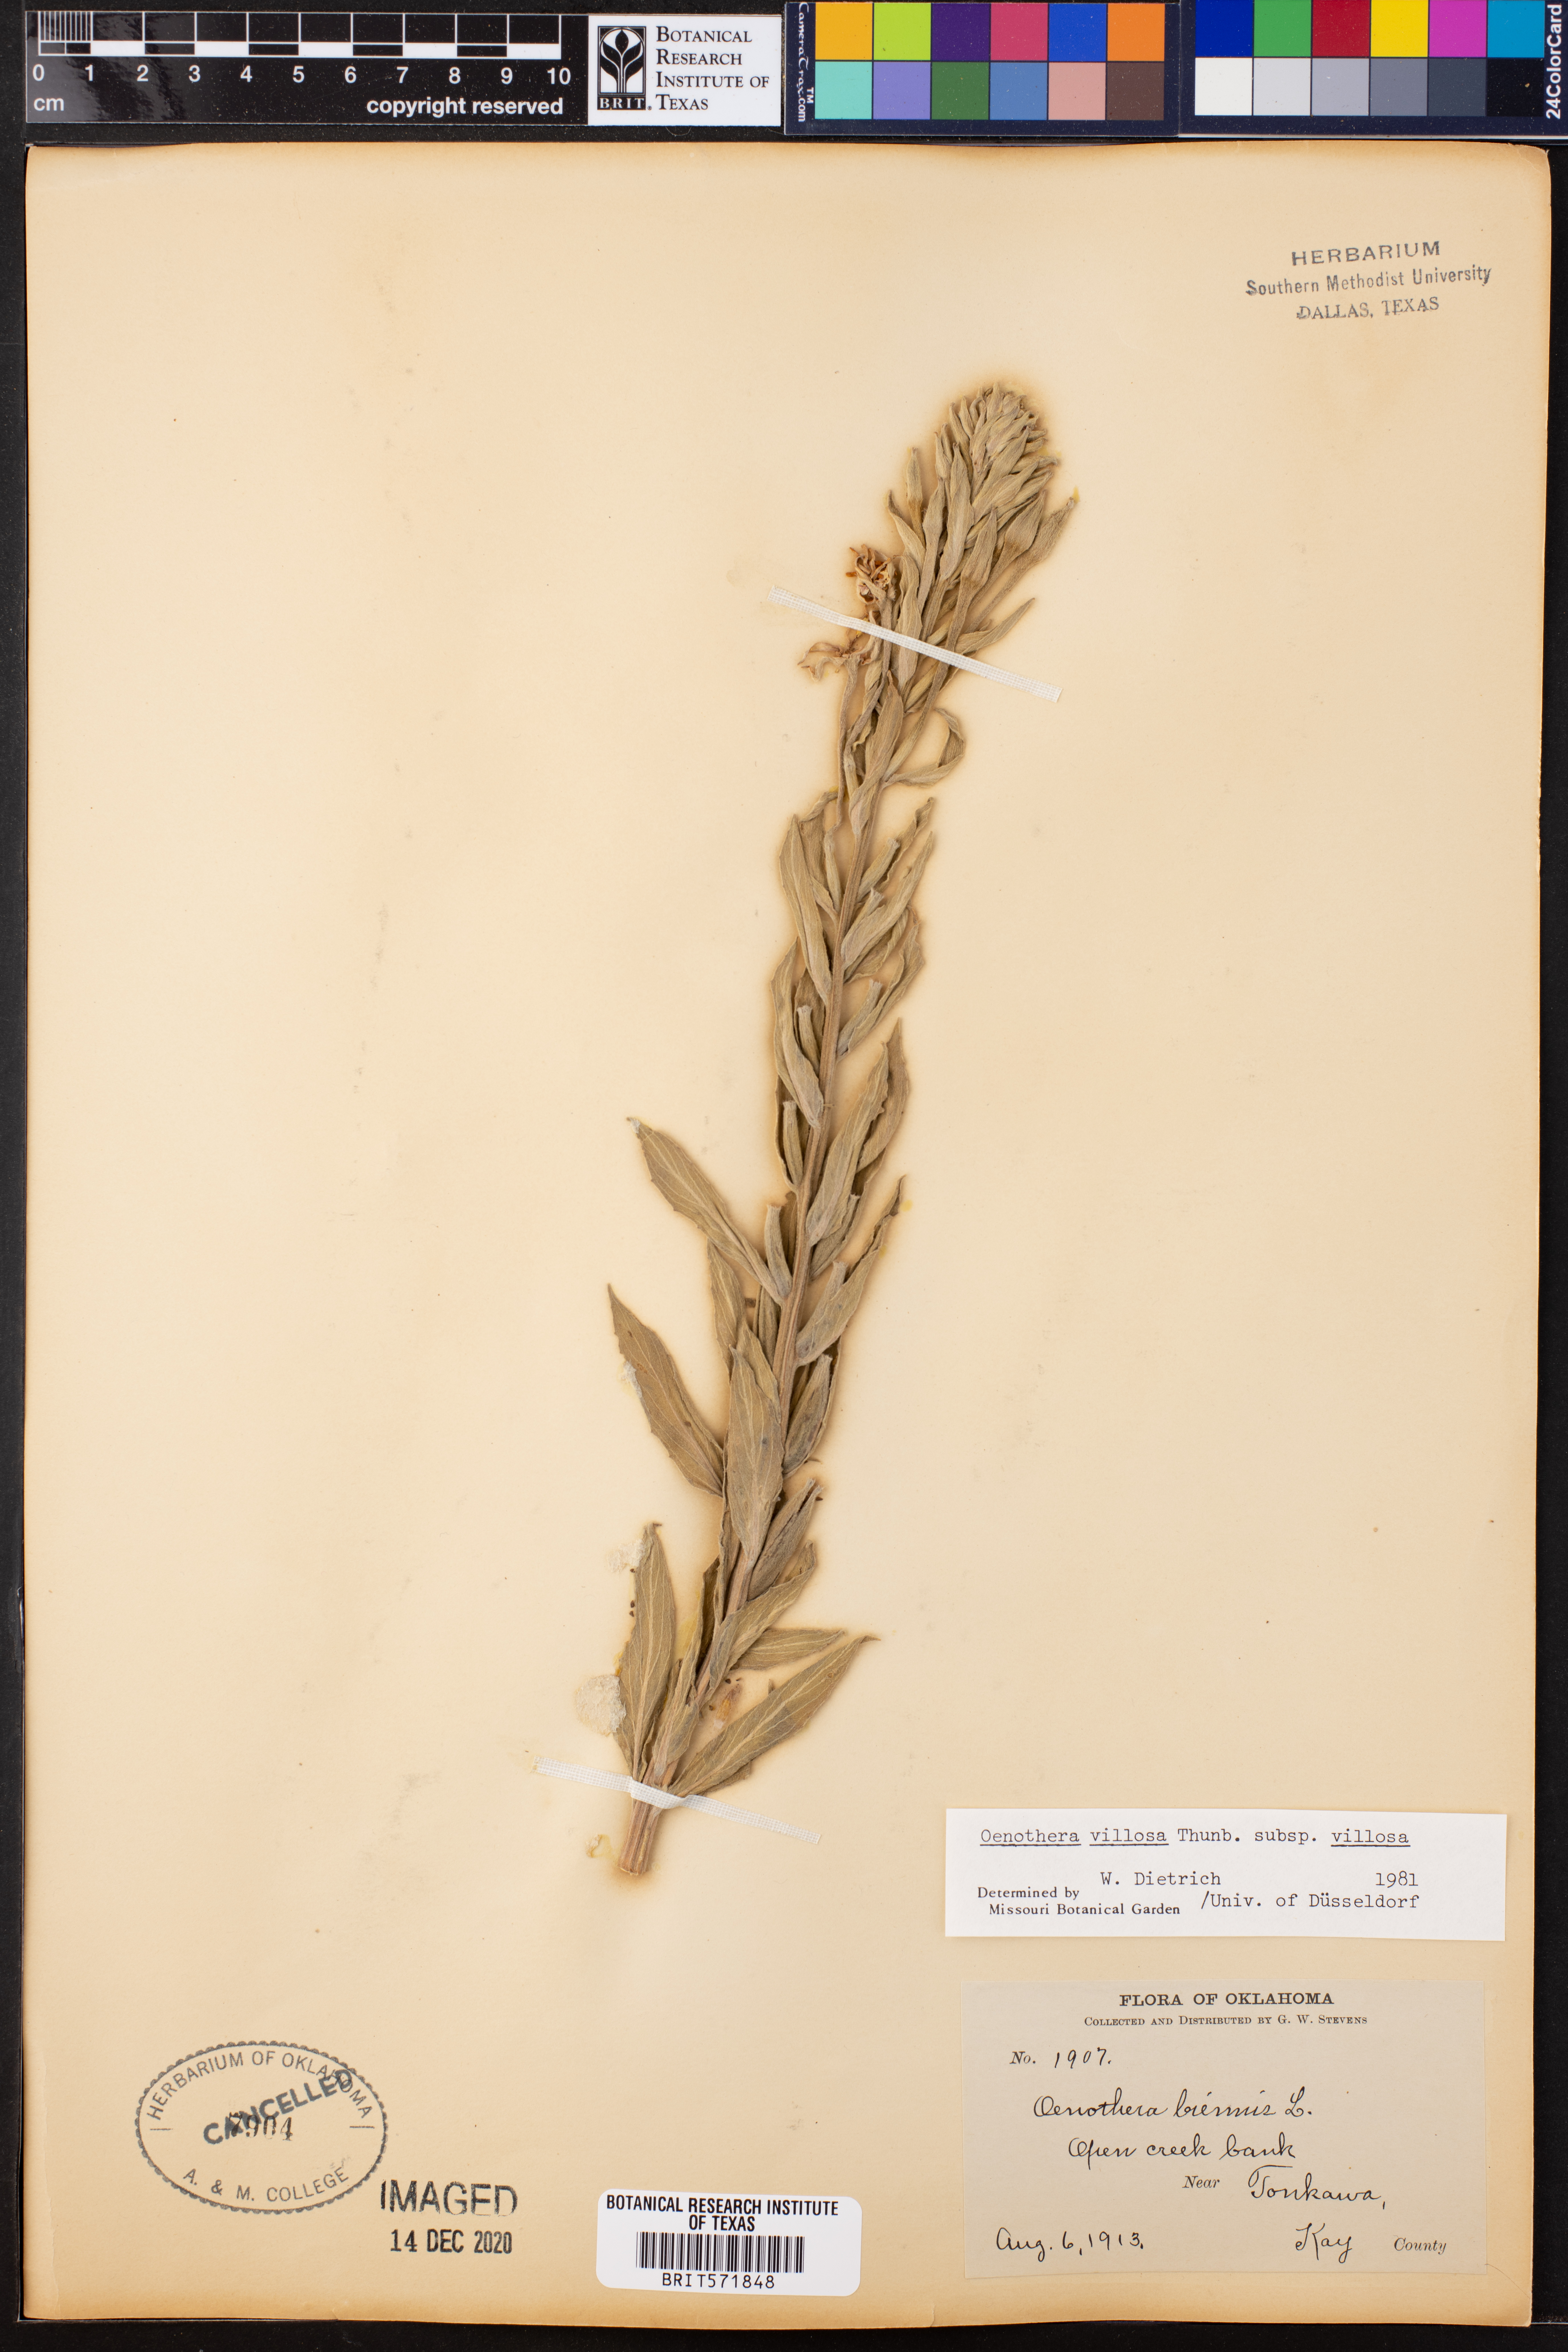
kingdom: Plantae
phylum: Tracheophyta
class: Magnoliopsida
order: Myrtales
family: Onagraceae
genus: Oenothera
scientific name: Oenothera villosa
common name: Hairy evening-primrose
